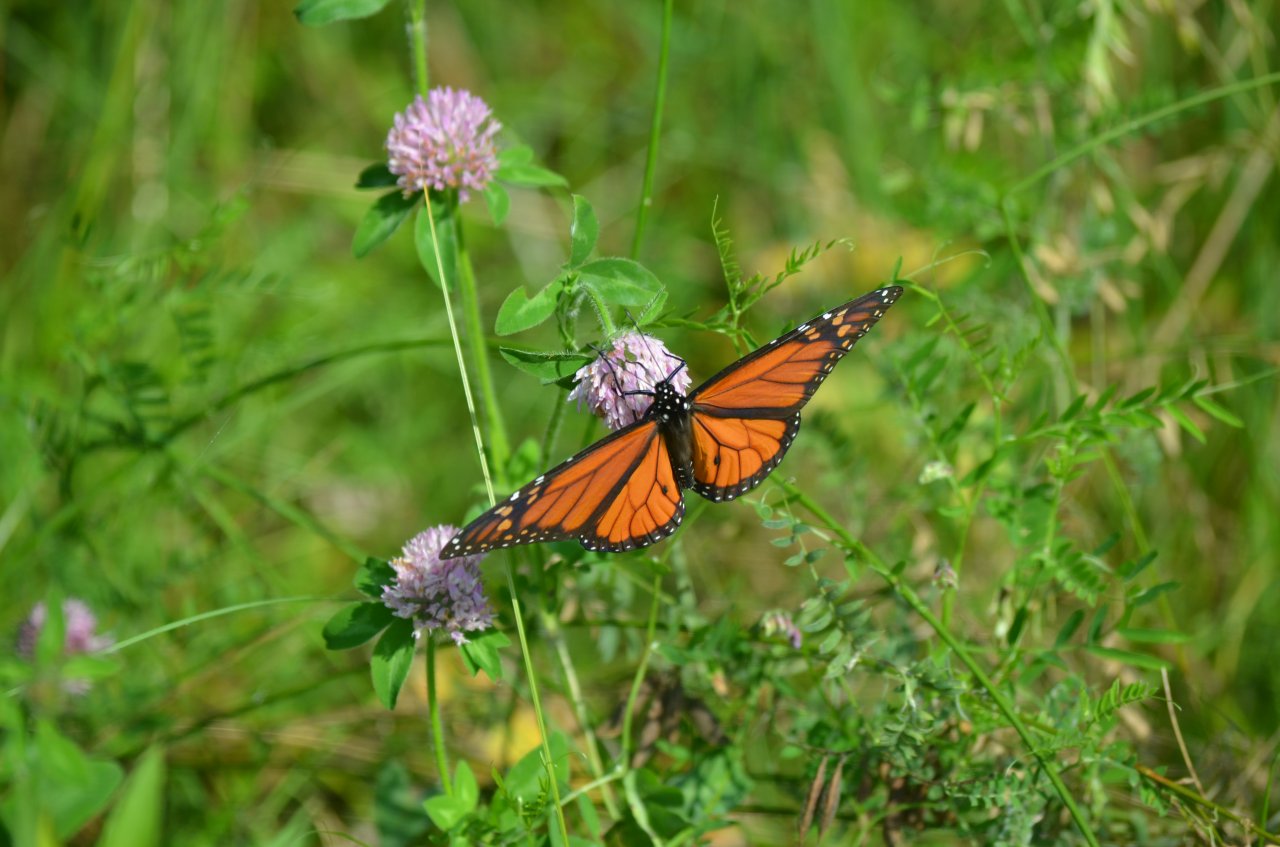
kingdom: Animalia
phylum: Arthropoda
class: Insecta
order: Lepidoptera
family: Nymphalidae
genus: Danaus
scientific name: Danaus plexippus
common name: Monarch
